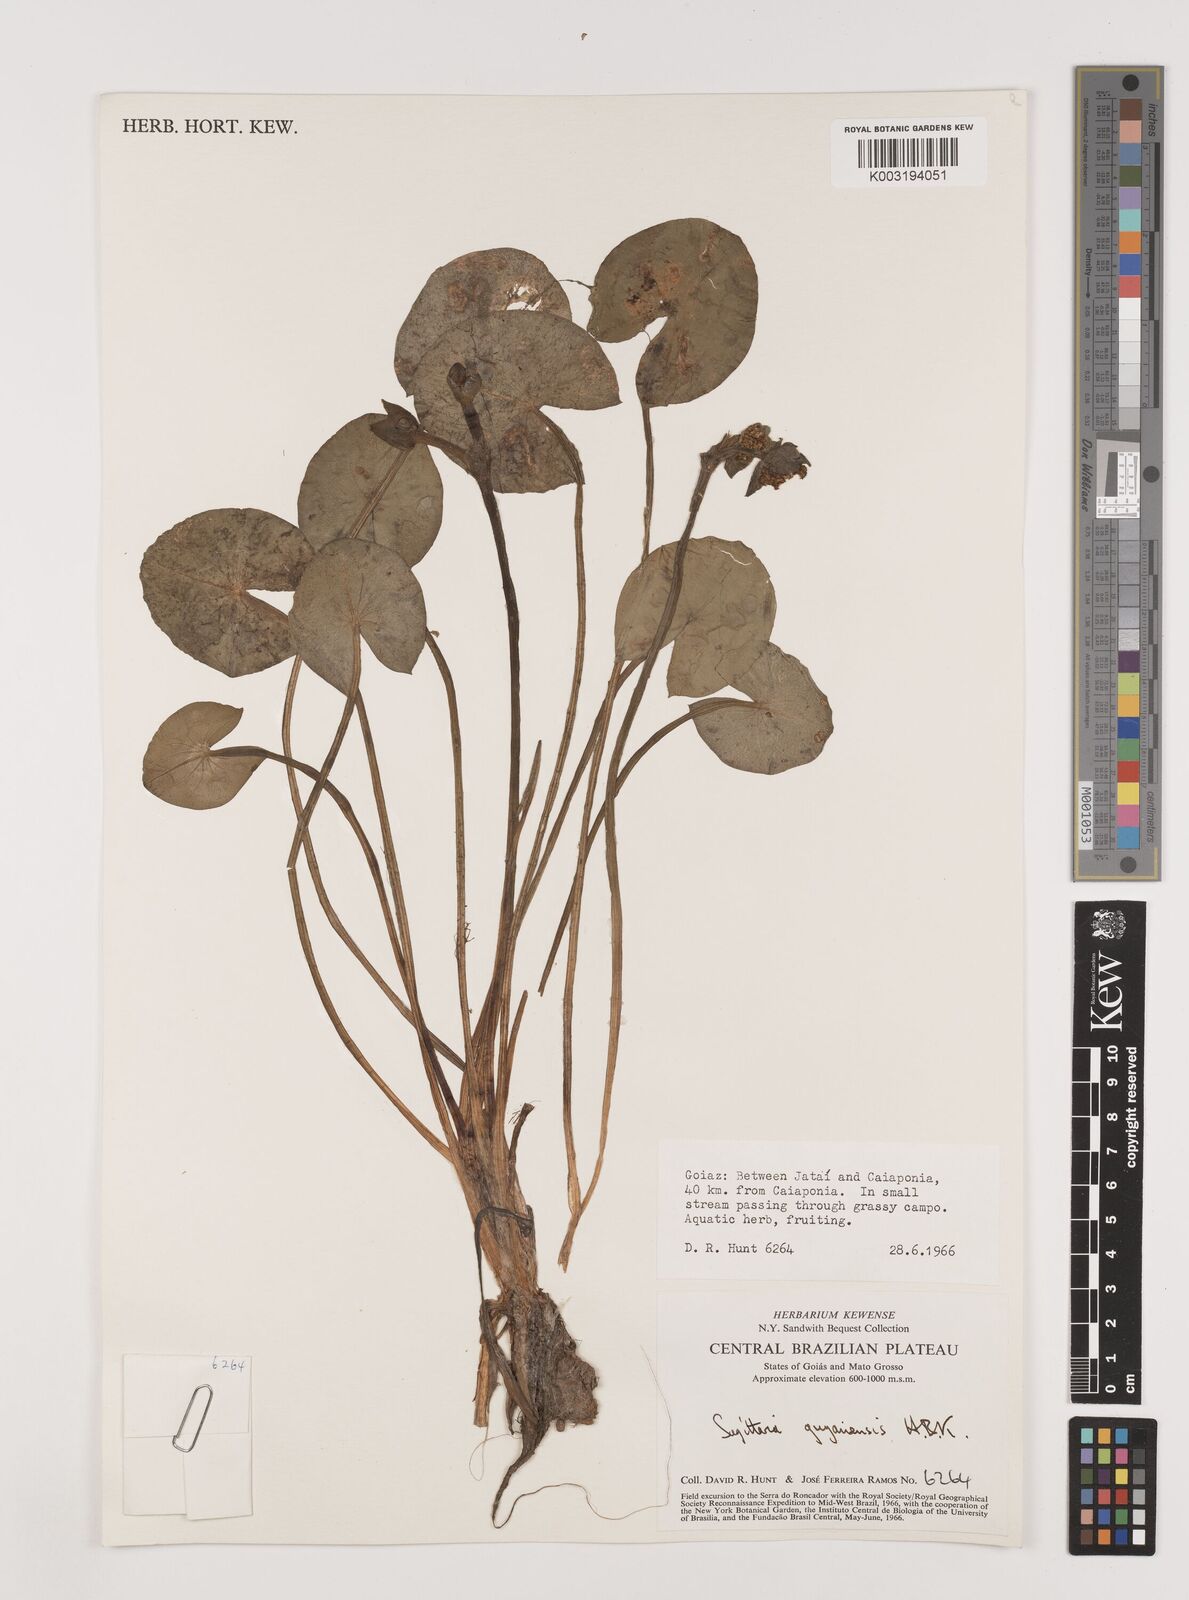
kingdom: Plantae
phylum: Tracheophyta
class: Liliopsida
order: Alismatales
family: Alismataceae
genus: Sagittaria
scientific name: Sagittaria guayanensis
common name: Guyanese arrowhead
